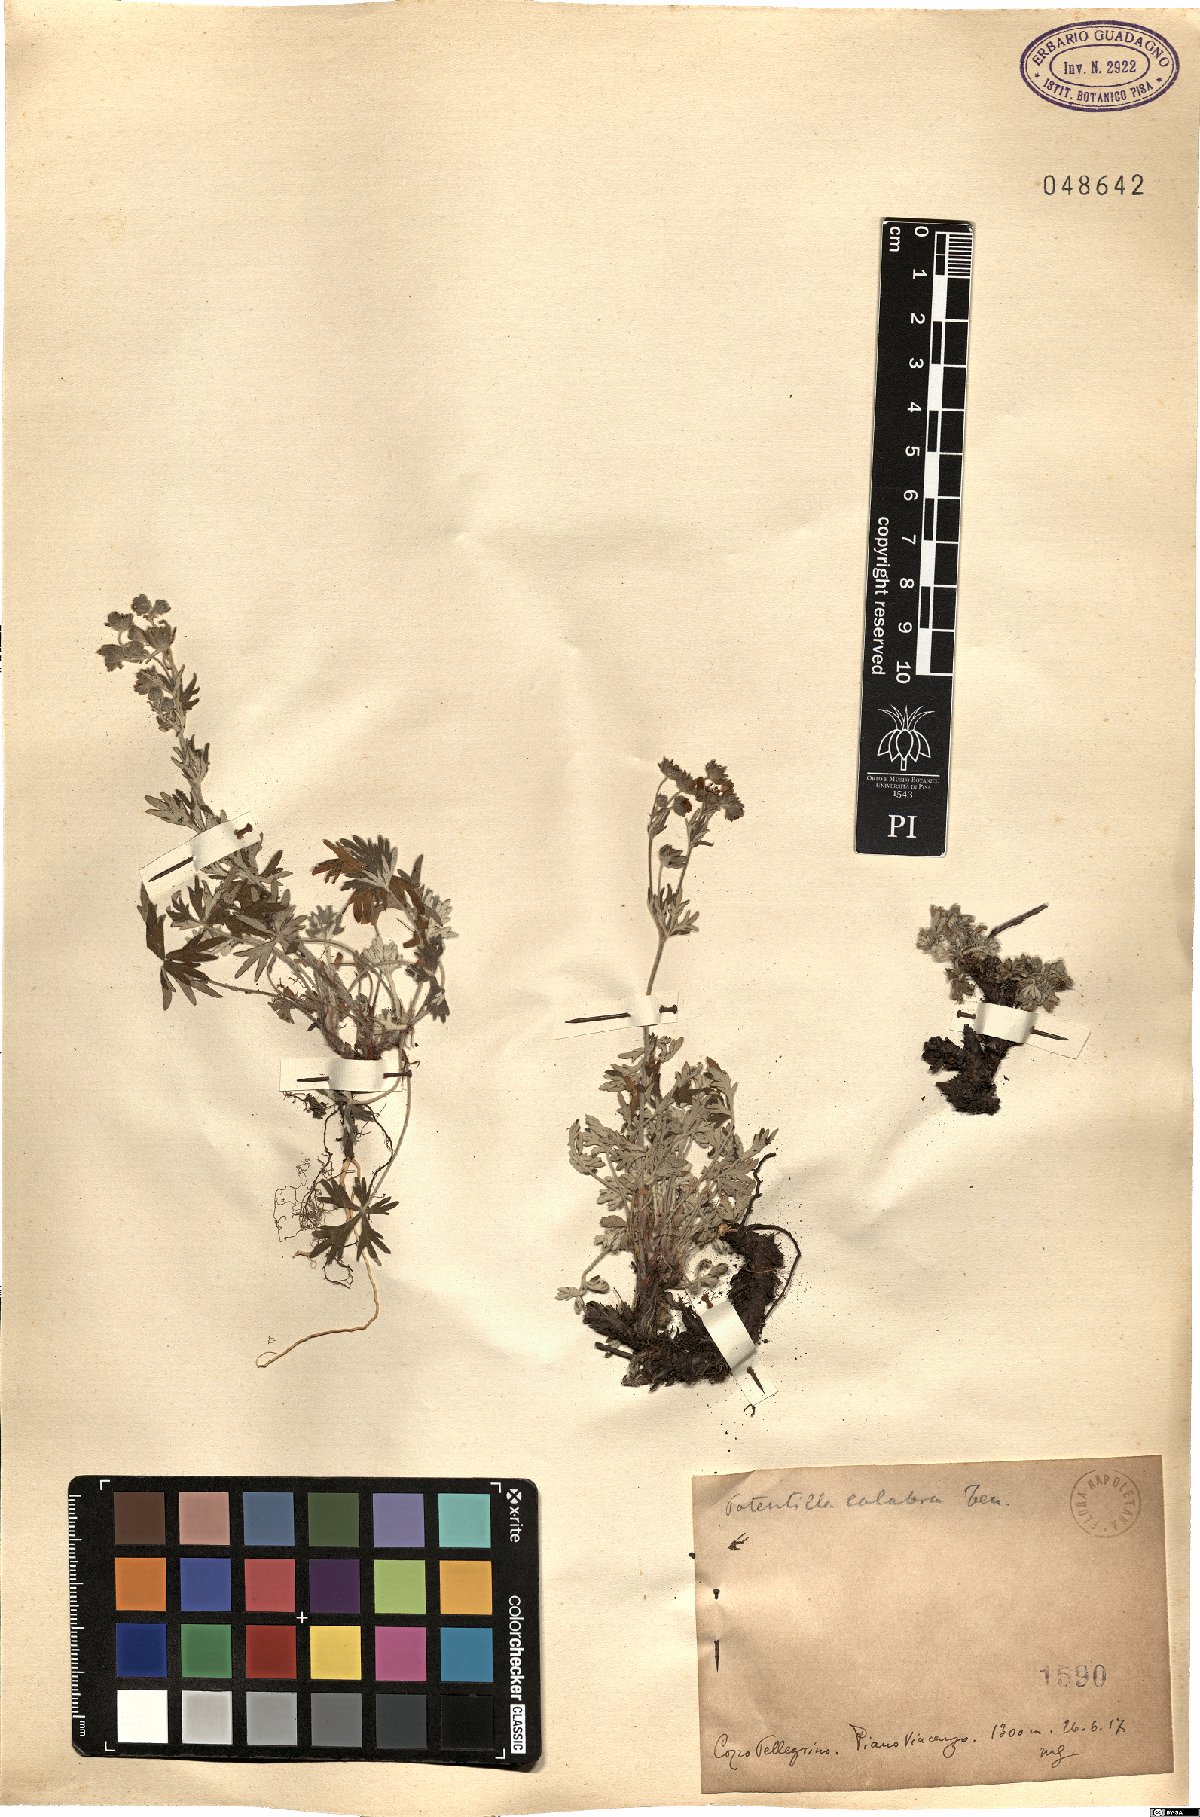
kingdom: Plantae
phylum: Tracheophyta
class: Magnoliopsida
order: Rosales
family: Rosaceae
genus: Potentilla
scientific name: Potentilla calabra
